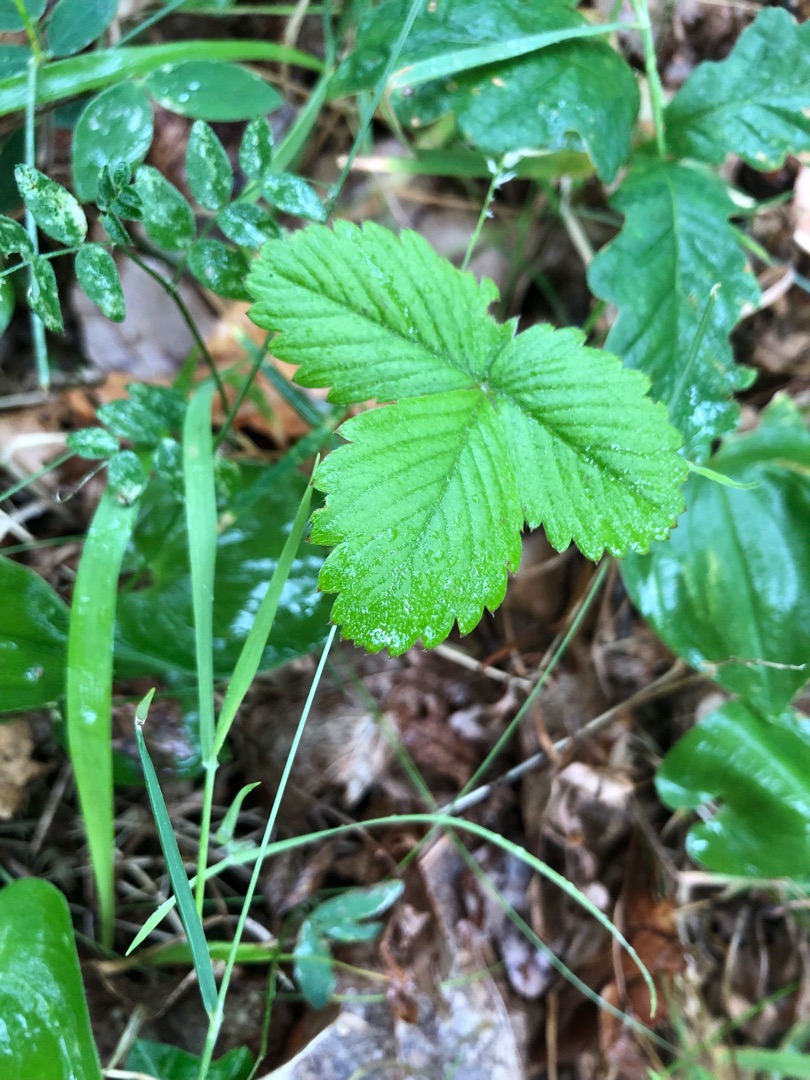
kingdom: Plantae
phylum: Tracheophyta
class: Magnoliopsida
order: Rosales
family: Rosaceae
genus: Fragaria
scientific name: Fragaria viridis
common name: Bakke-jordbær
